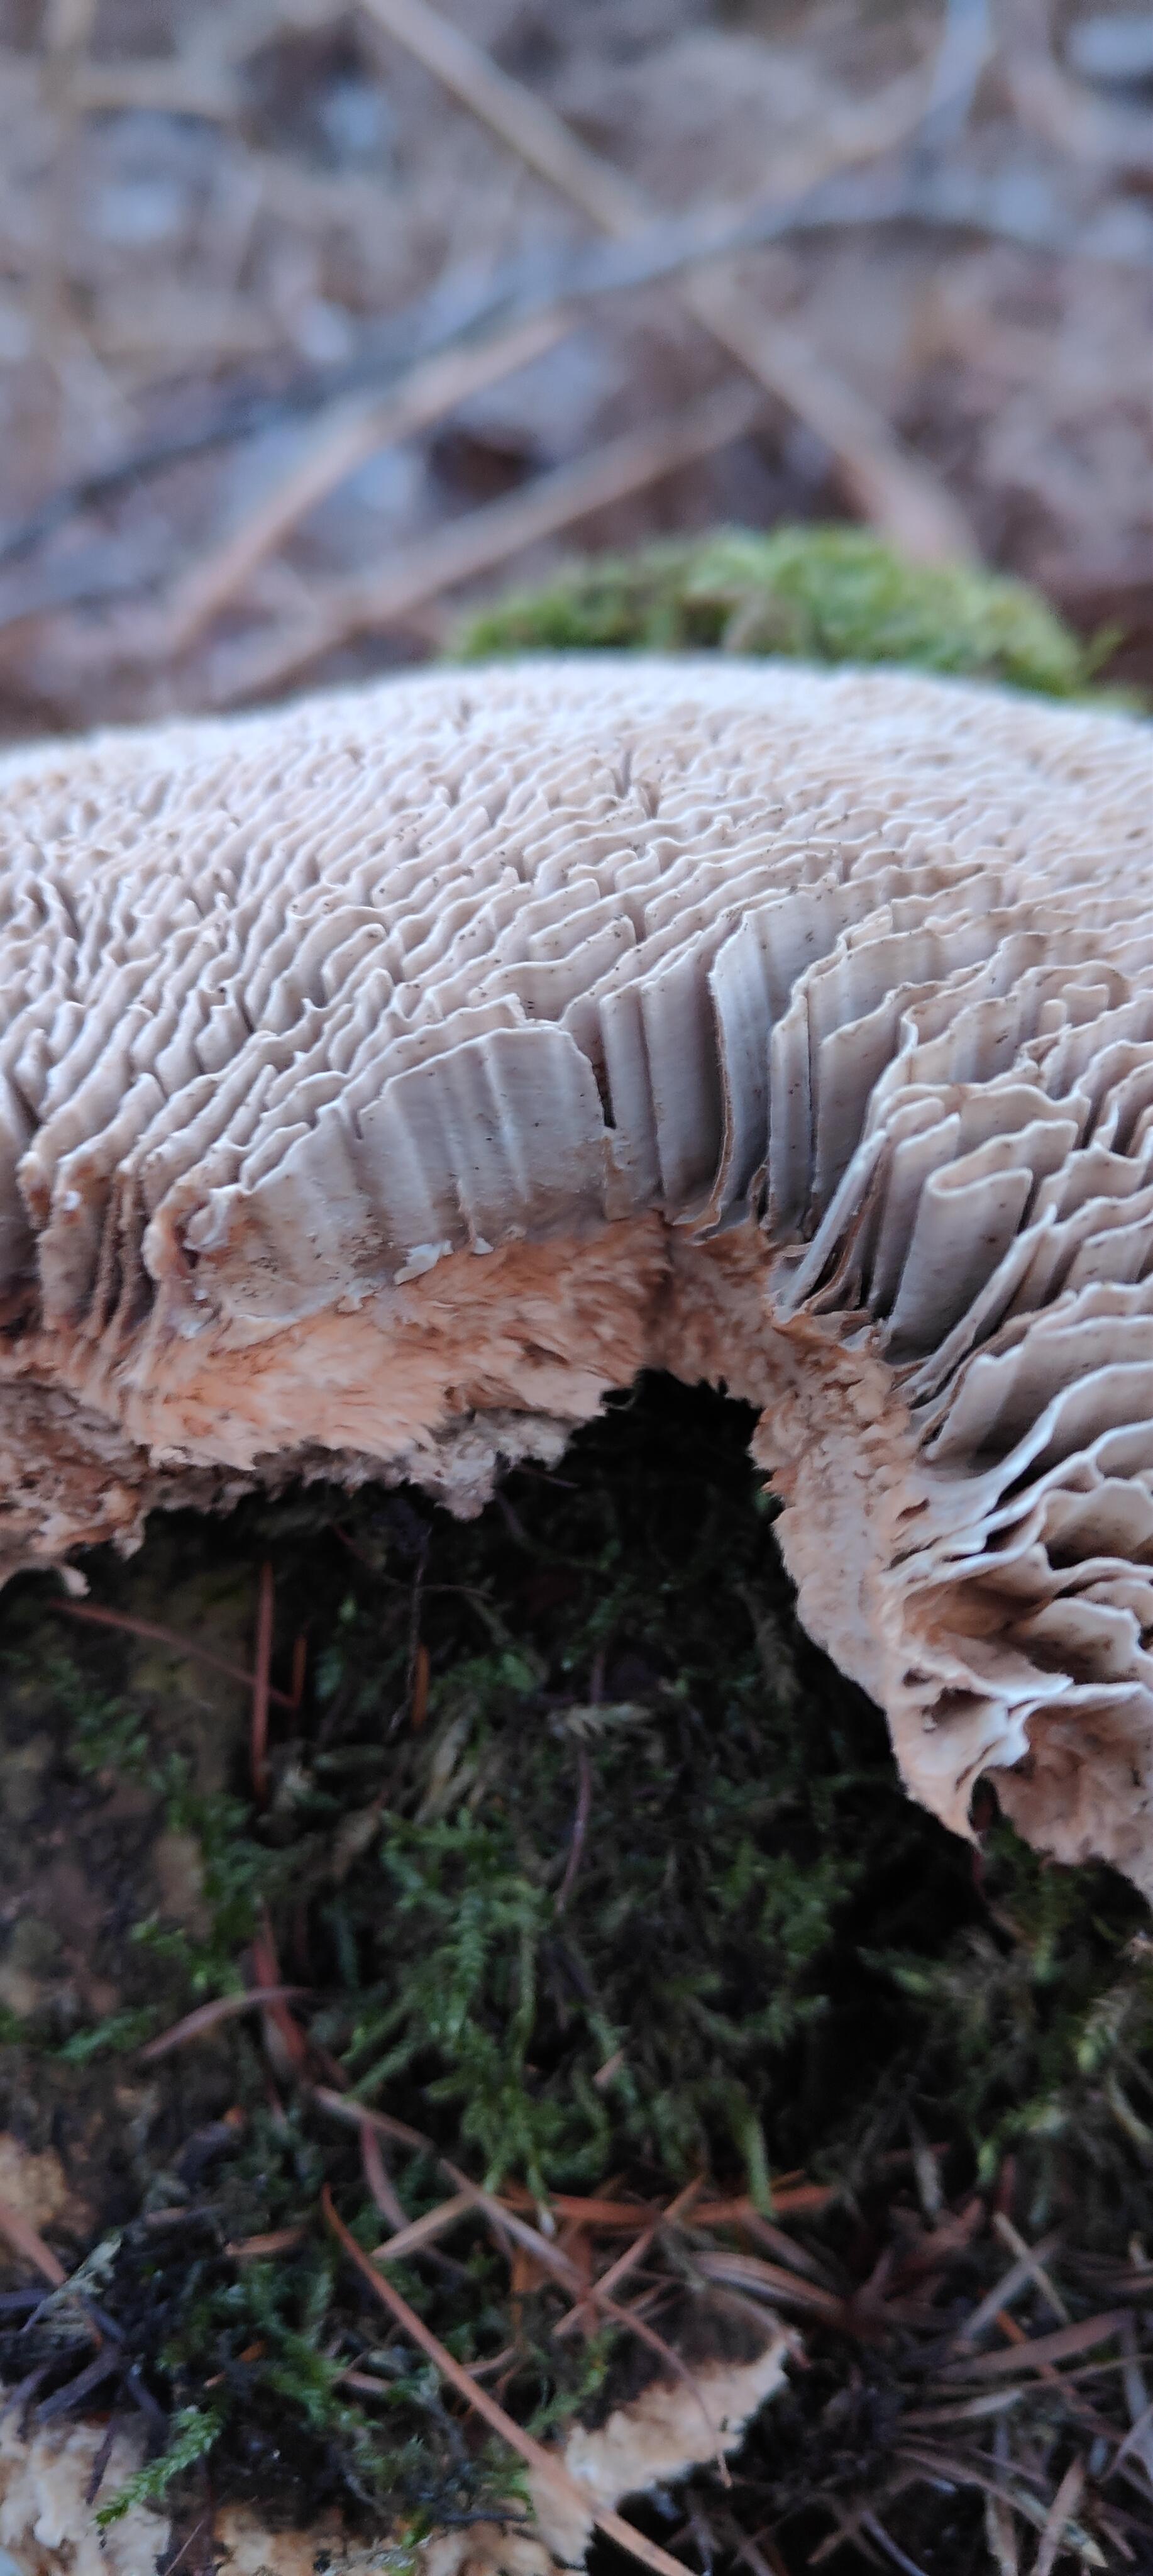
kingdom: Fungi
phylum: Basidiomycota
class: Agaricomycetes
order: Polyporales
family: Fomitopsidaceae
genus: Daedalea
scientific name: Daedalea quercina
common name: ege-labyrintsvamp
